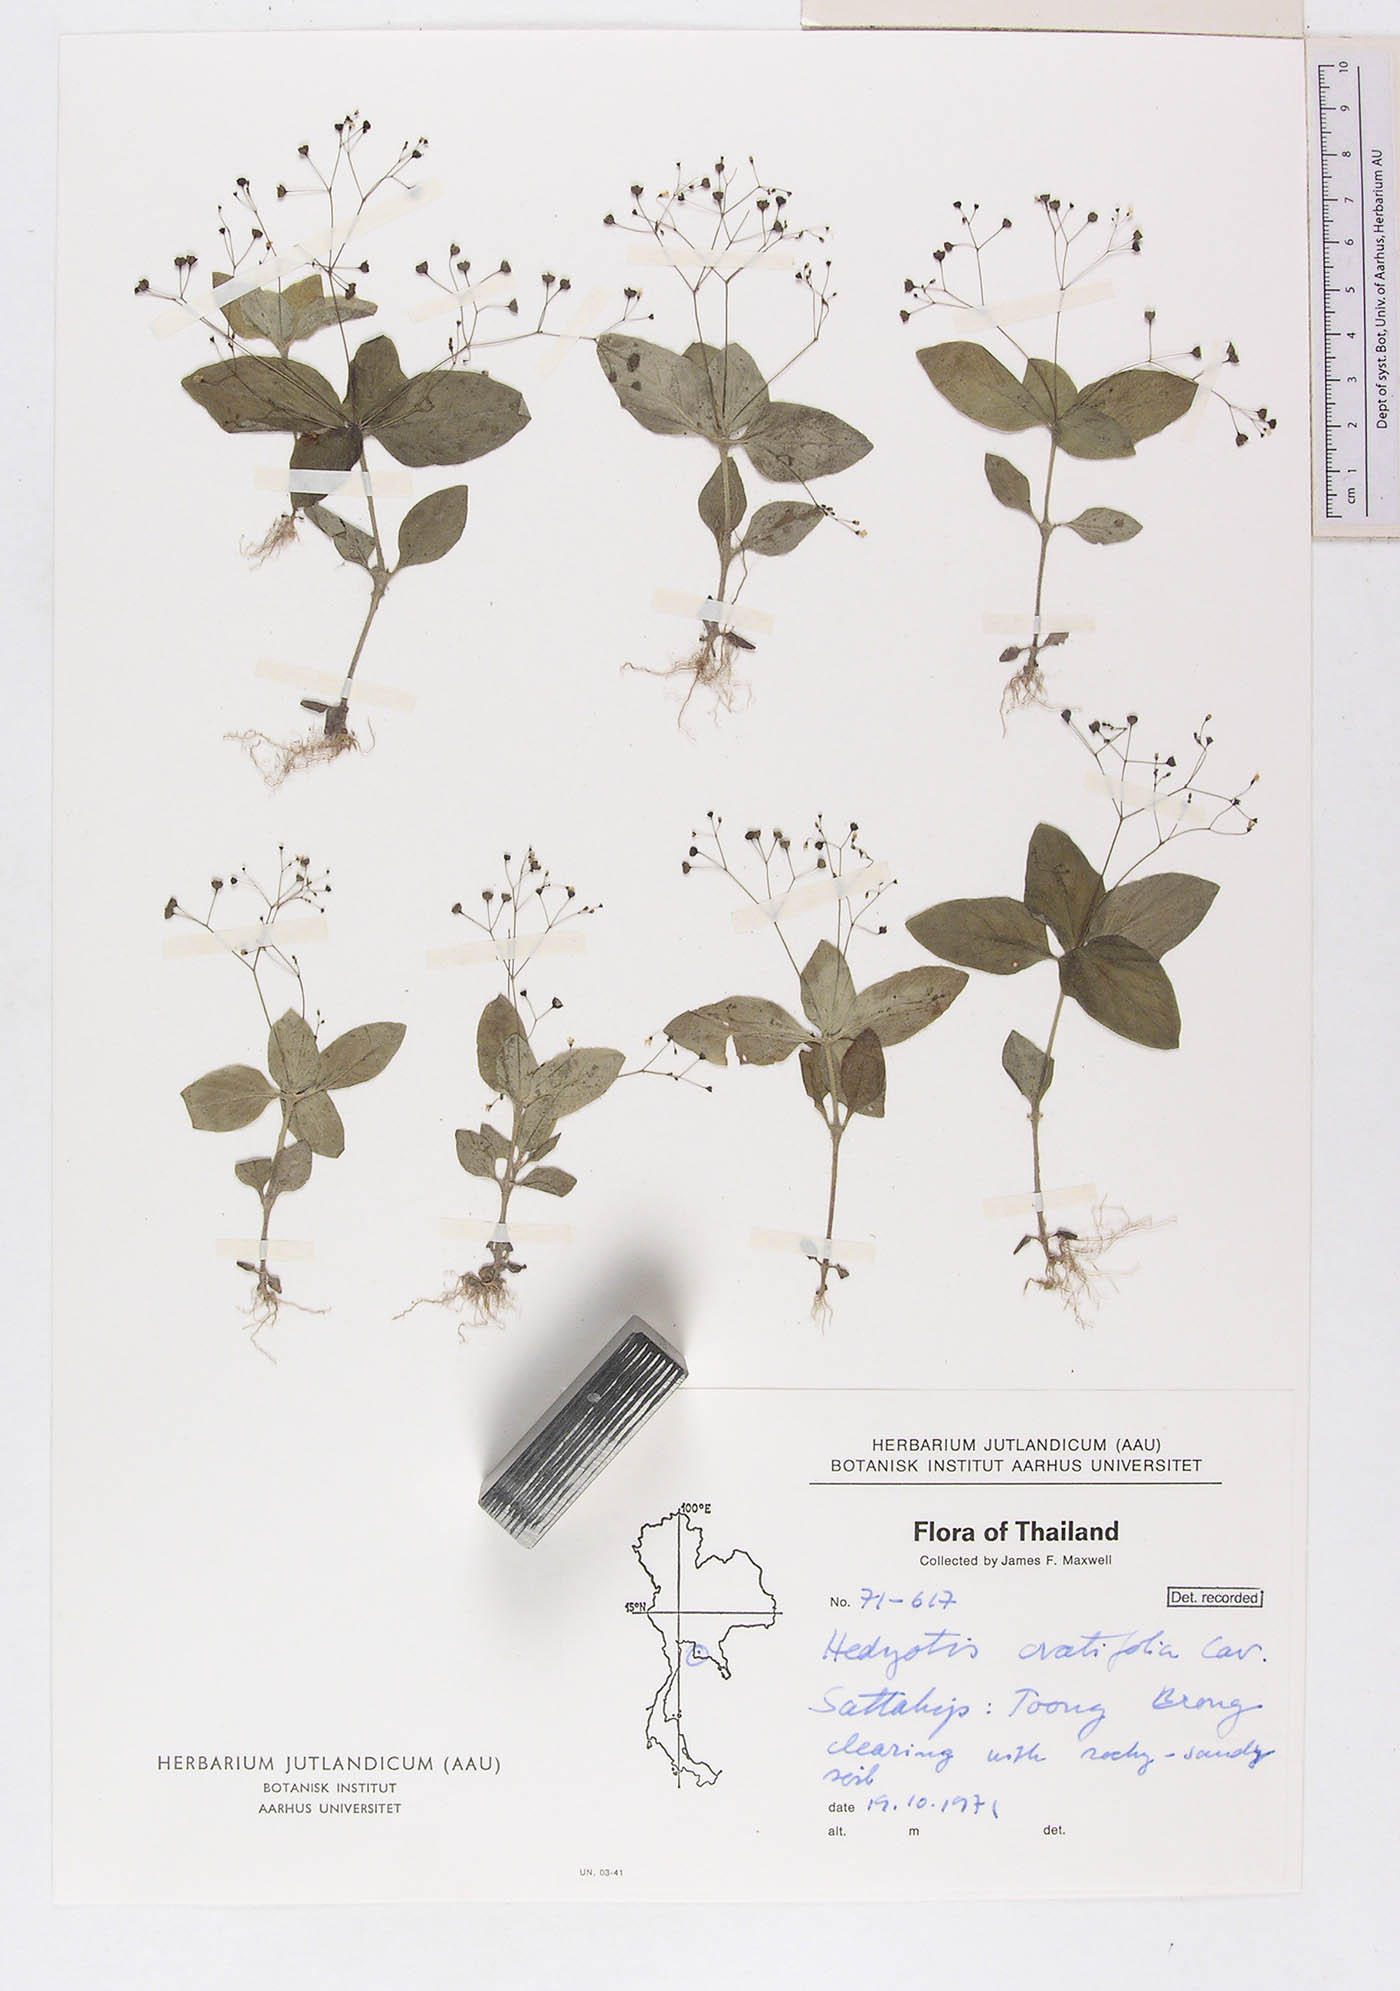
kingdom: Plantae
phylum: Tracheophyta
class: Magnoliopsida
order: Gentianales
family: Rubiaceae
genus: Debia
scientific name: Debia ovatifolia
